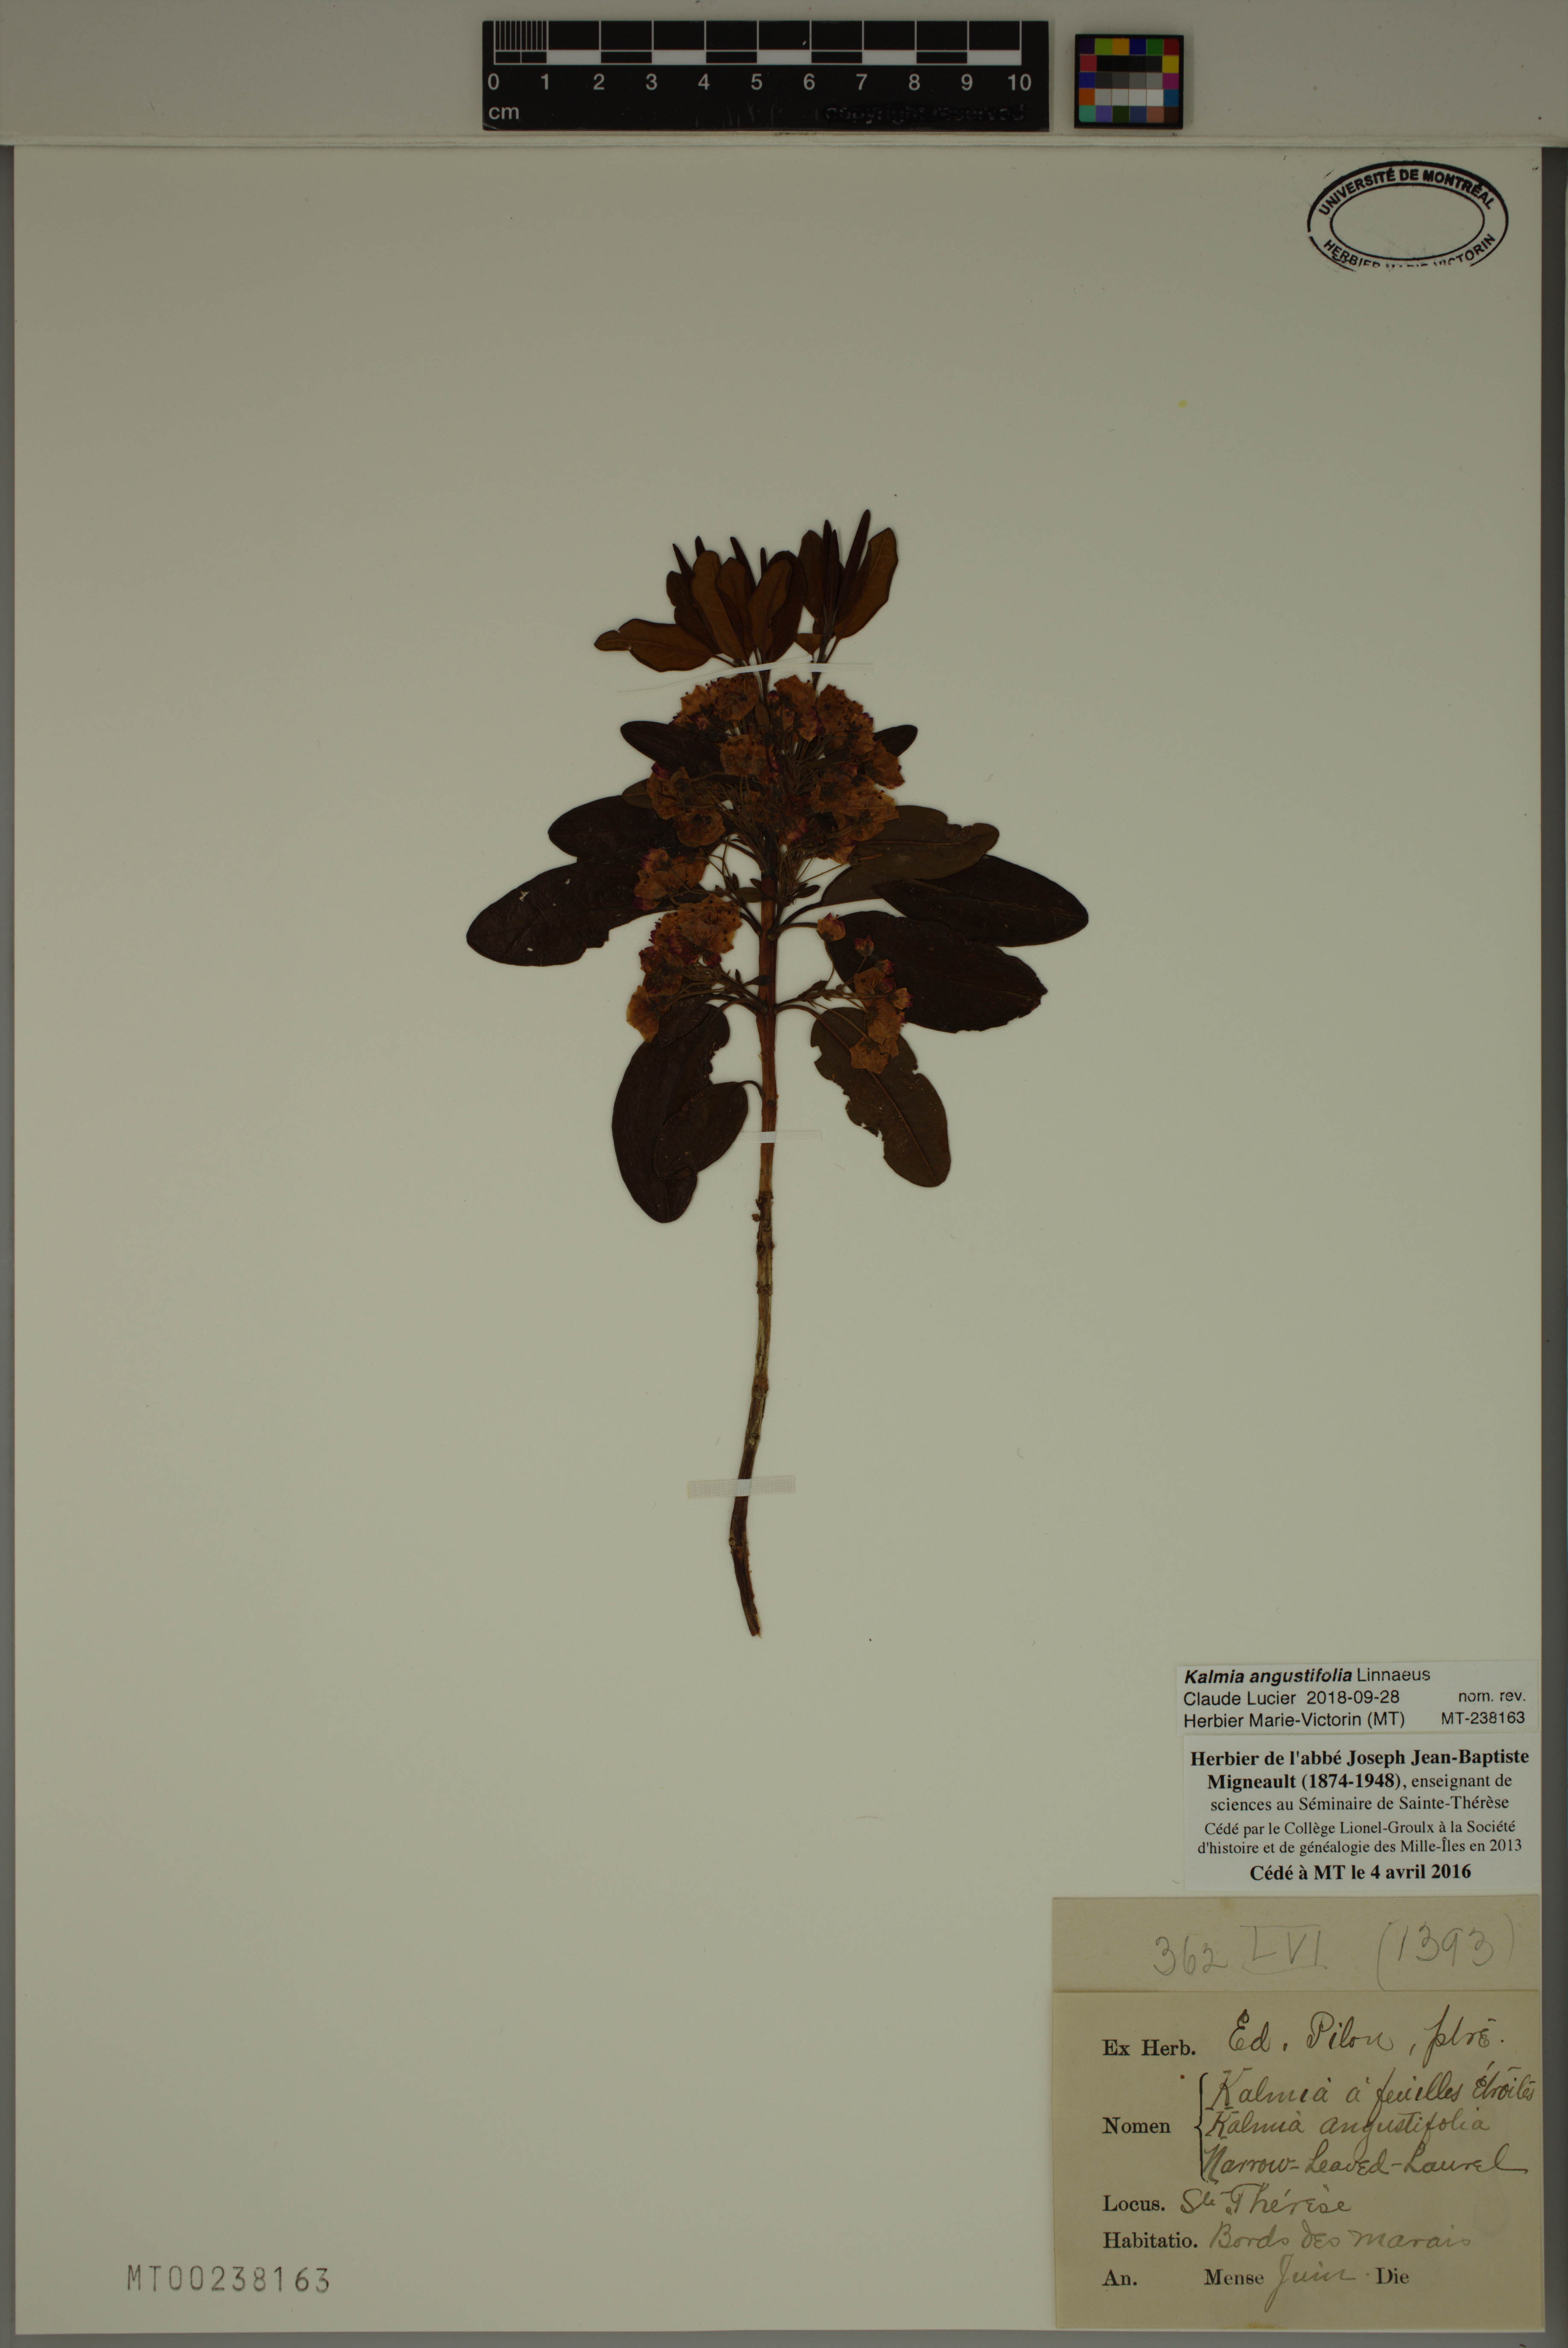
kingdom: Plantae
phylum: Tracheophyta
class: Magnoliopsida
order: Ericales
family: Ericaceae
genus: Kalmia
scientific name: Kalmia angustifolia
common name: Sheep-laurel
